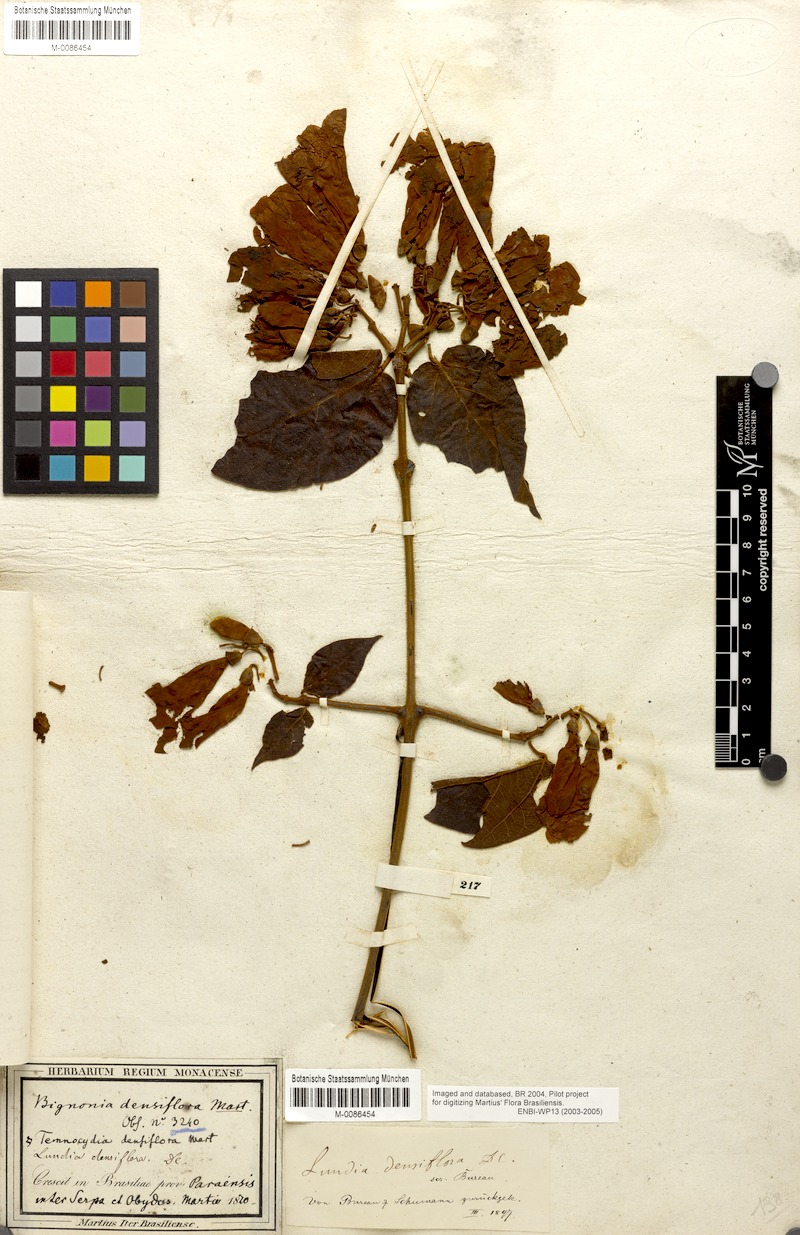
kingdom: Plantae
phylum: Tracheophyta
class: Magnoliopsida
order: Lamiales
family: Bignoniaceae
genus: Lundia
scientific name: Lundia densiflora
